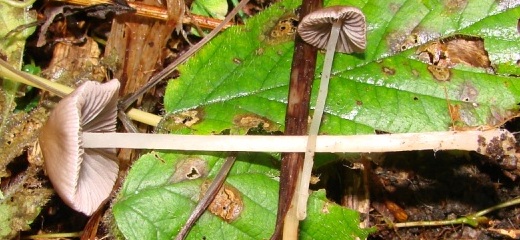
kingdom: Fungi
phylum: Basidiomycota
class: Agaricomycetes
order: Agaricales
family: Psathyrellaceae
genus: Psathyrella
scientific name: Psathyrella corrugis
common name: rødægget mørkhat
